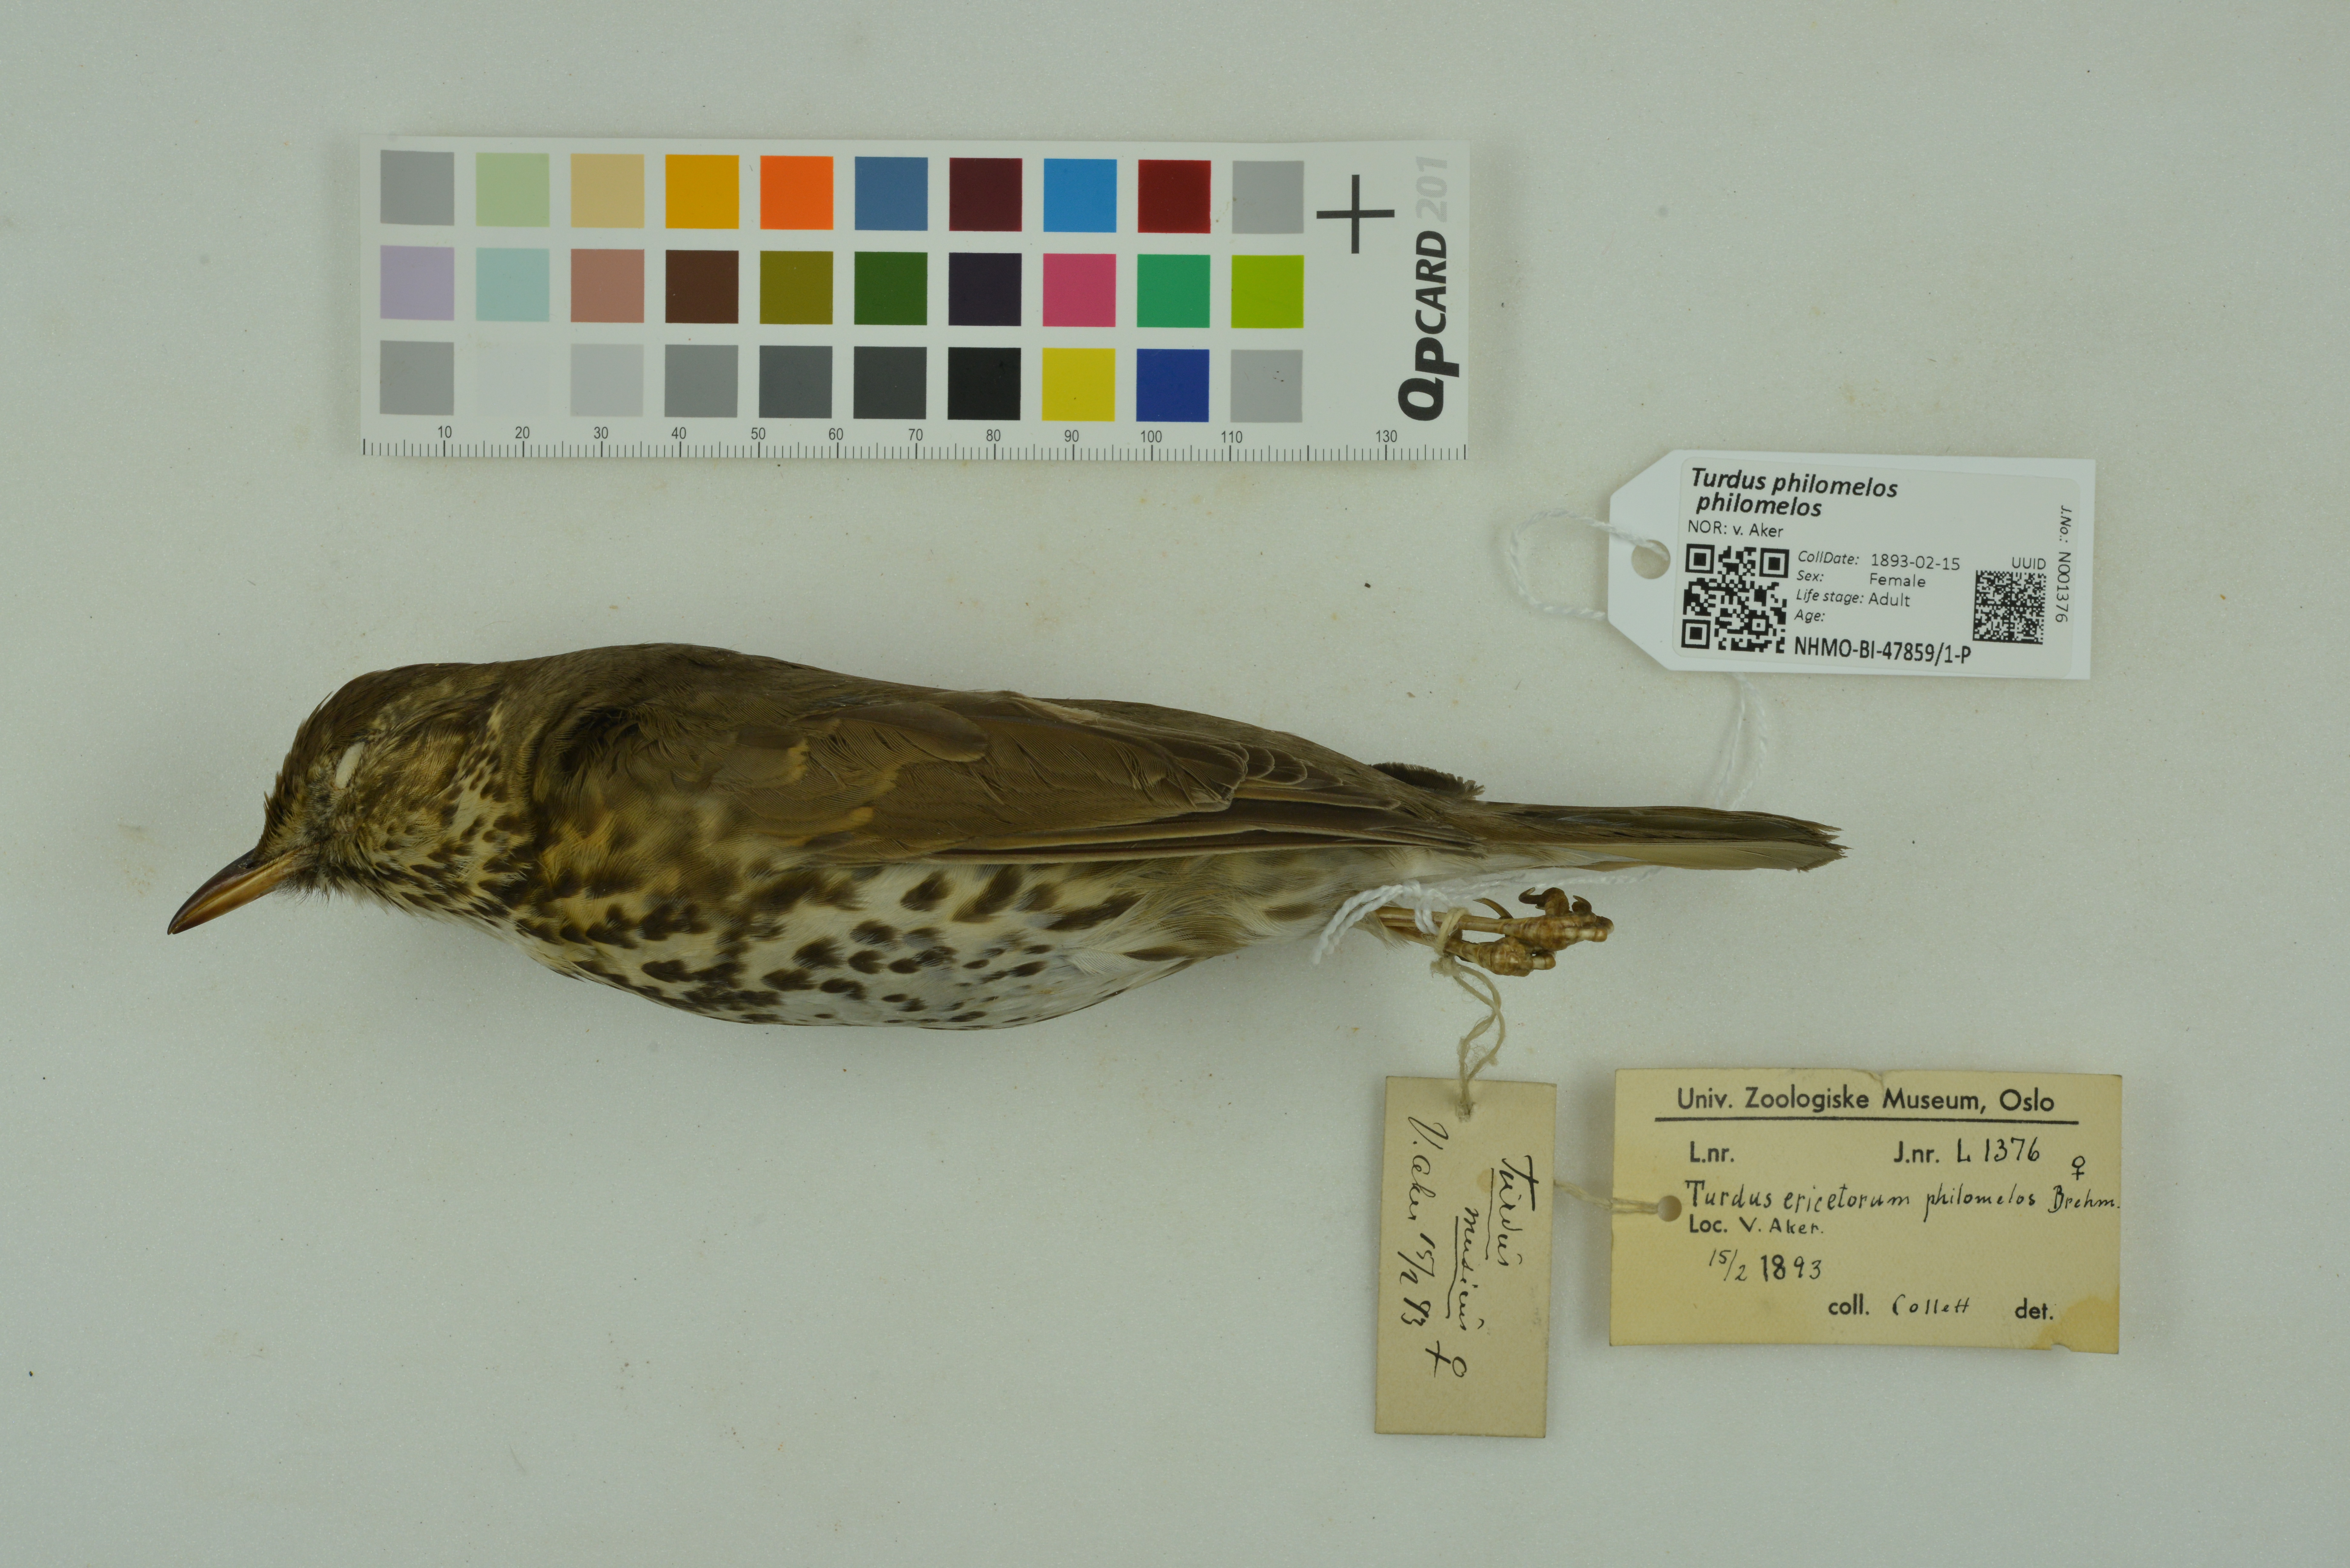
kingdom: Animalia
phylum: Chordata
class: Aves
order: Passeriformes
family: Turdidae
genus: Turdus
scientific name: Turdus philomelos
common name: Song thrush
